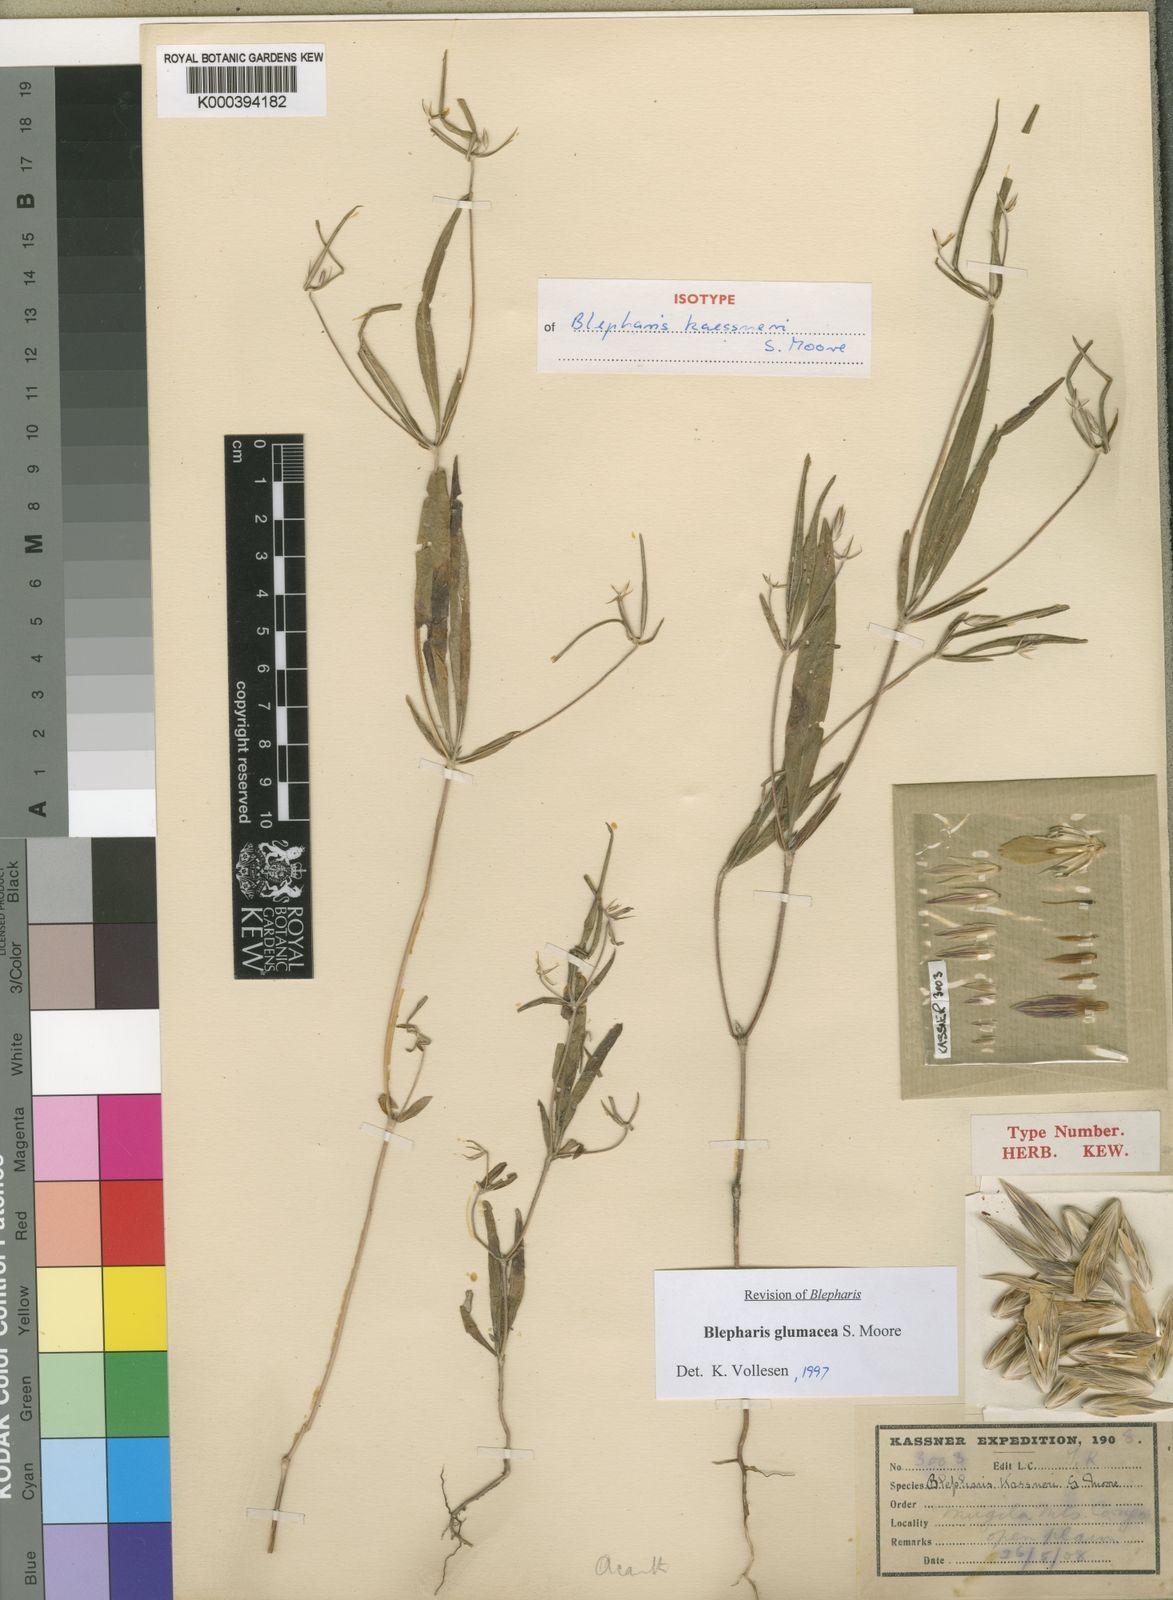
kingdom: Plantae
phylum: Tracheophyta
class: Magnoliopsida
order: Lamiales
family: Acanthaceae
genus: Blepharis
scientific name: Blepharis glumacea
